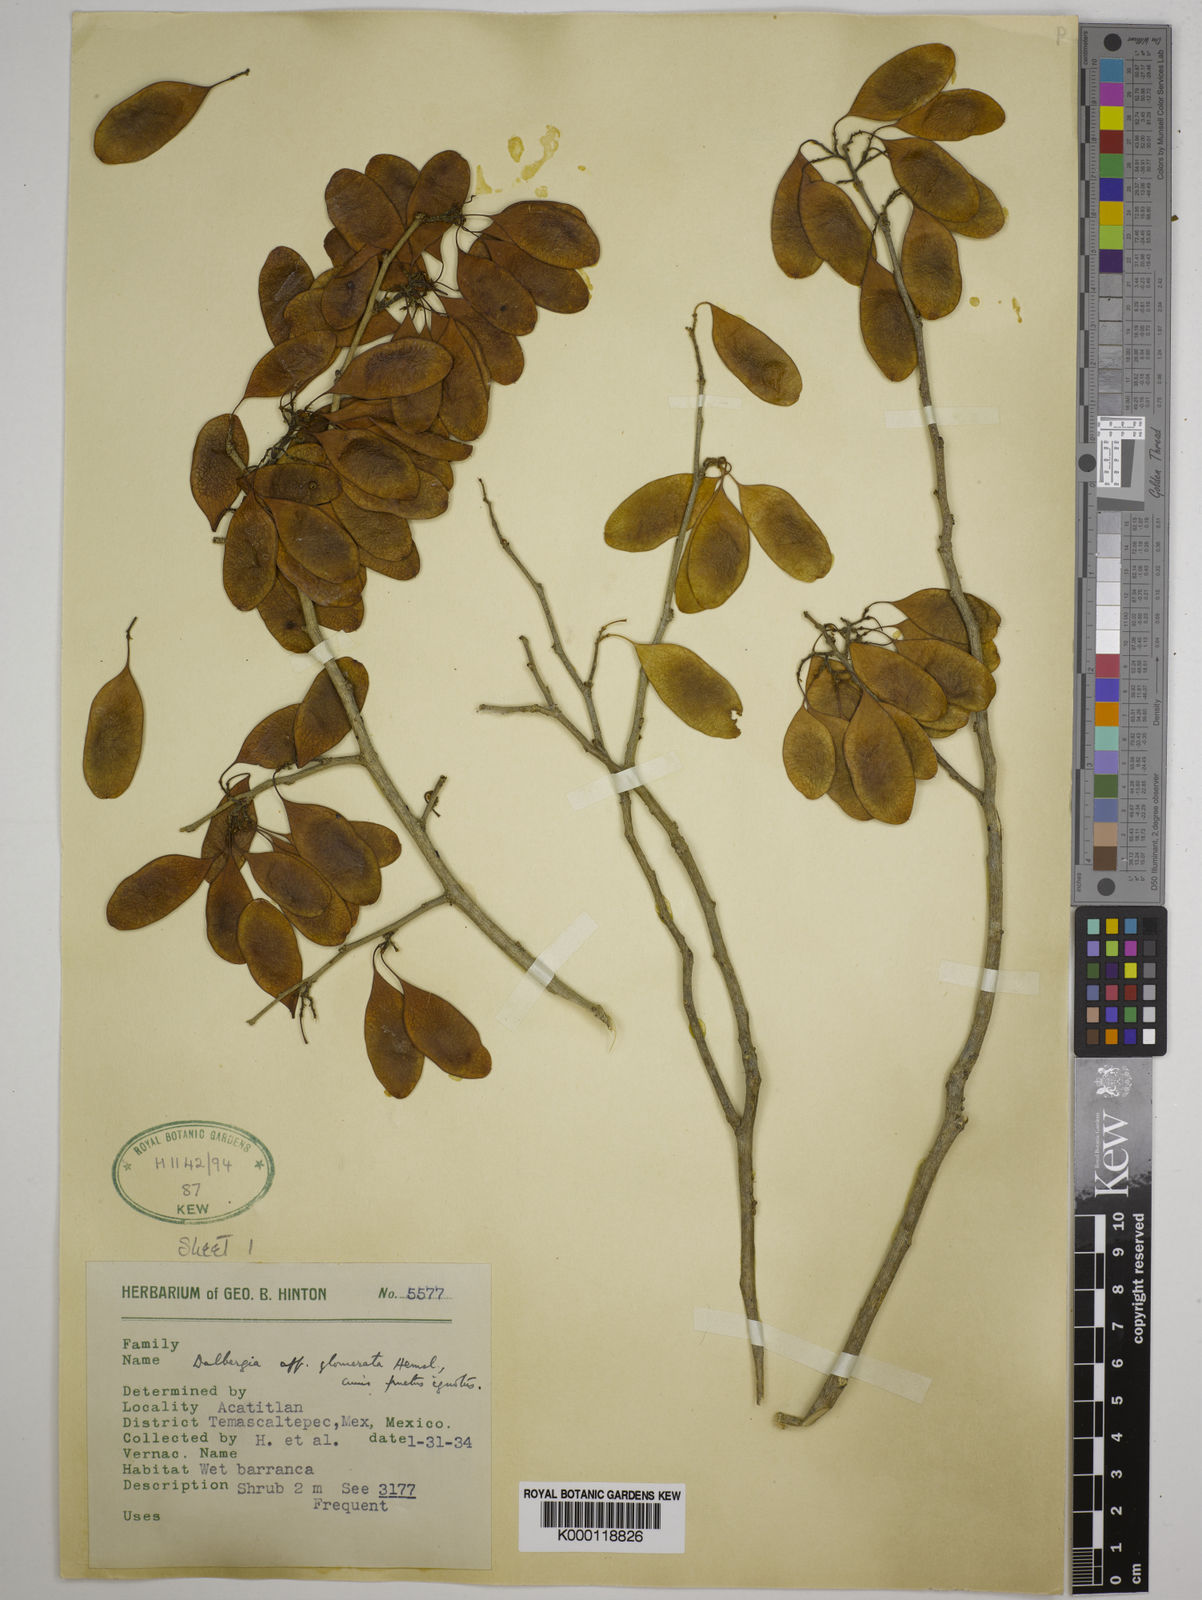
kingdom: Plantae
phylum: Tracheophyta
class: Magnoliopsida
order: Fabales
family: Fabaceae
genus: Dalbergia
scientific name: Dalbergia glomerata
